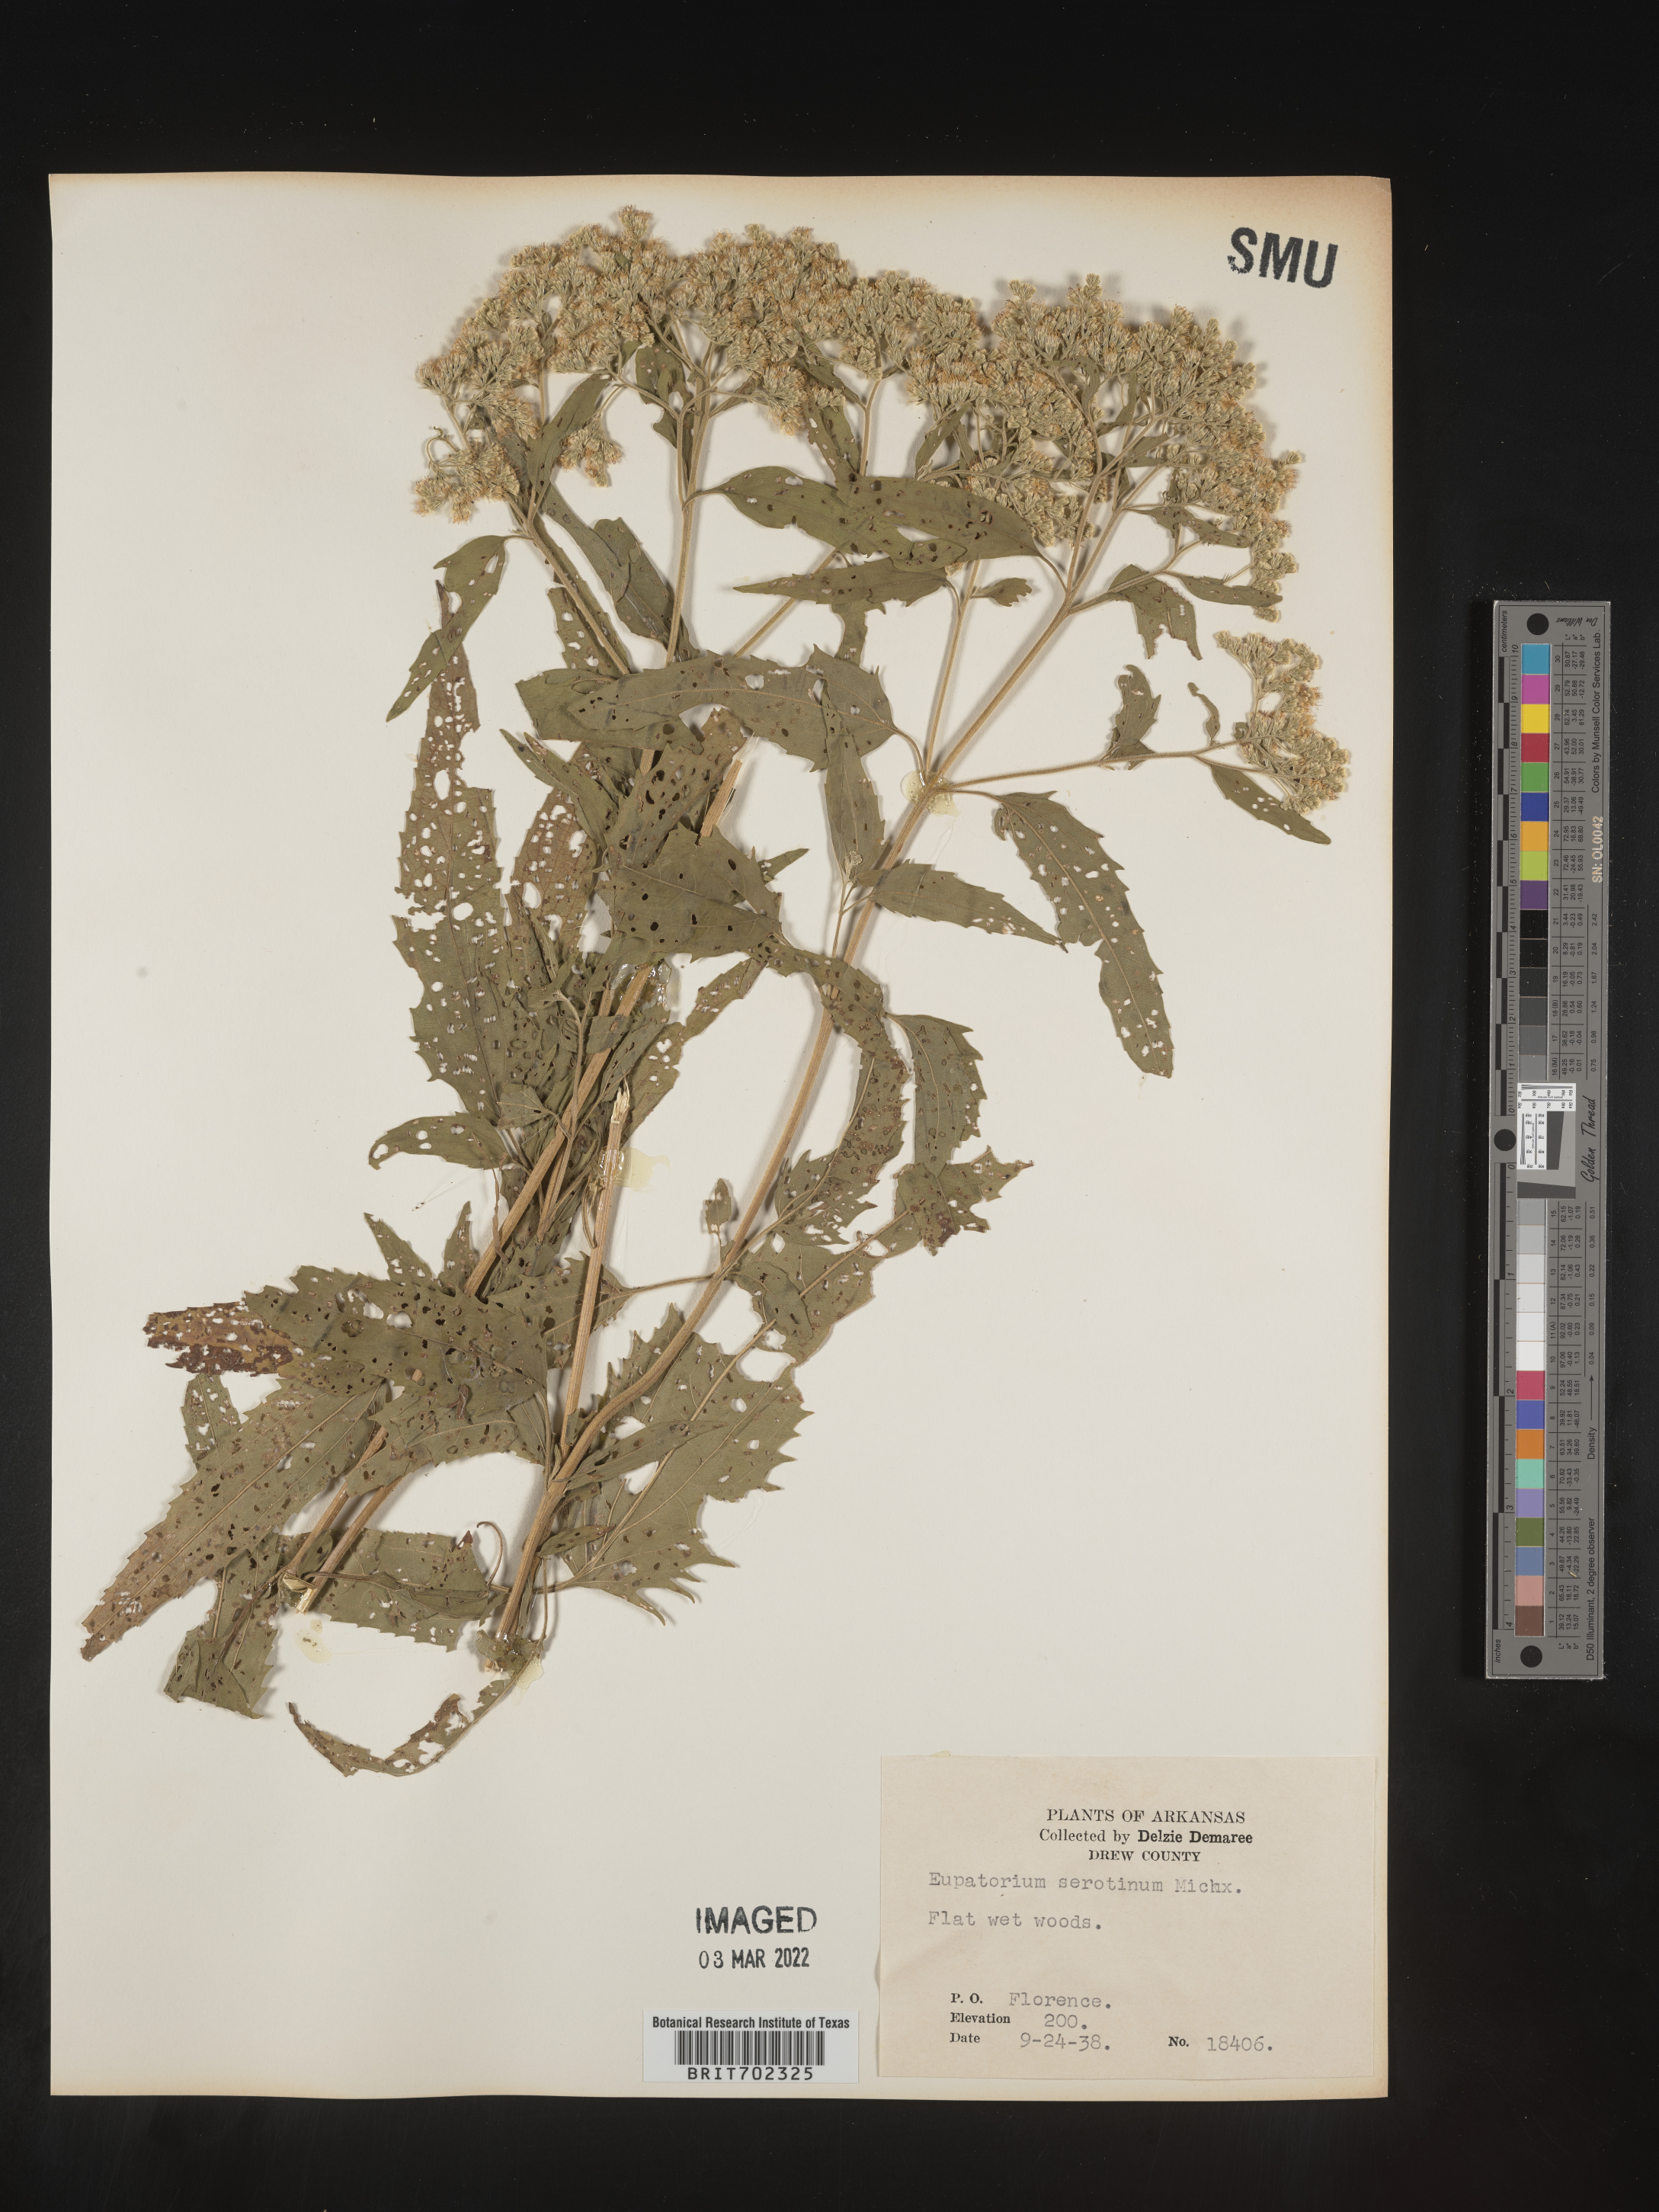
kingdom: Plantae
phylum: Tracheophyta
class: Magnoliopsida
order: Asterales
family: Asteraceae
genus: Eupatorium
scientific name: Eupatorium serotinum
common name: Late boneset
